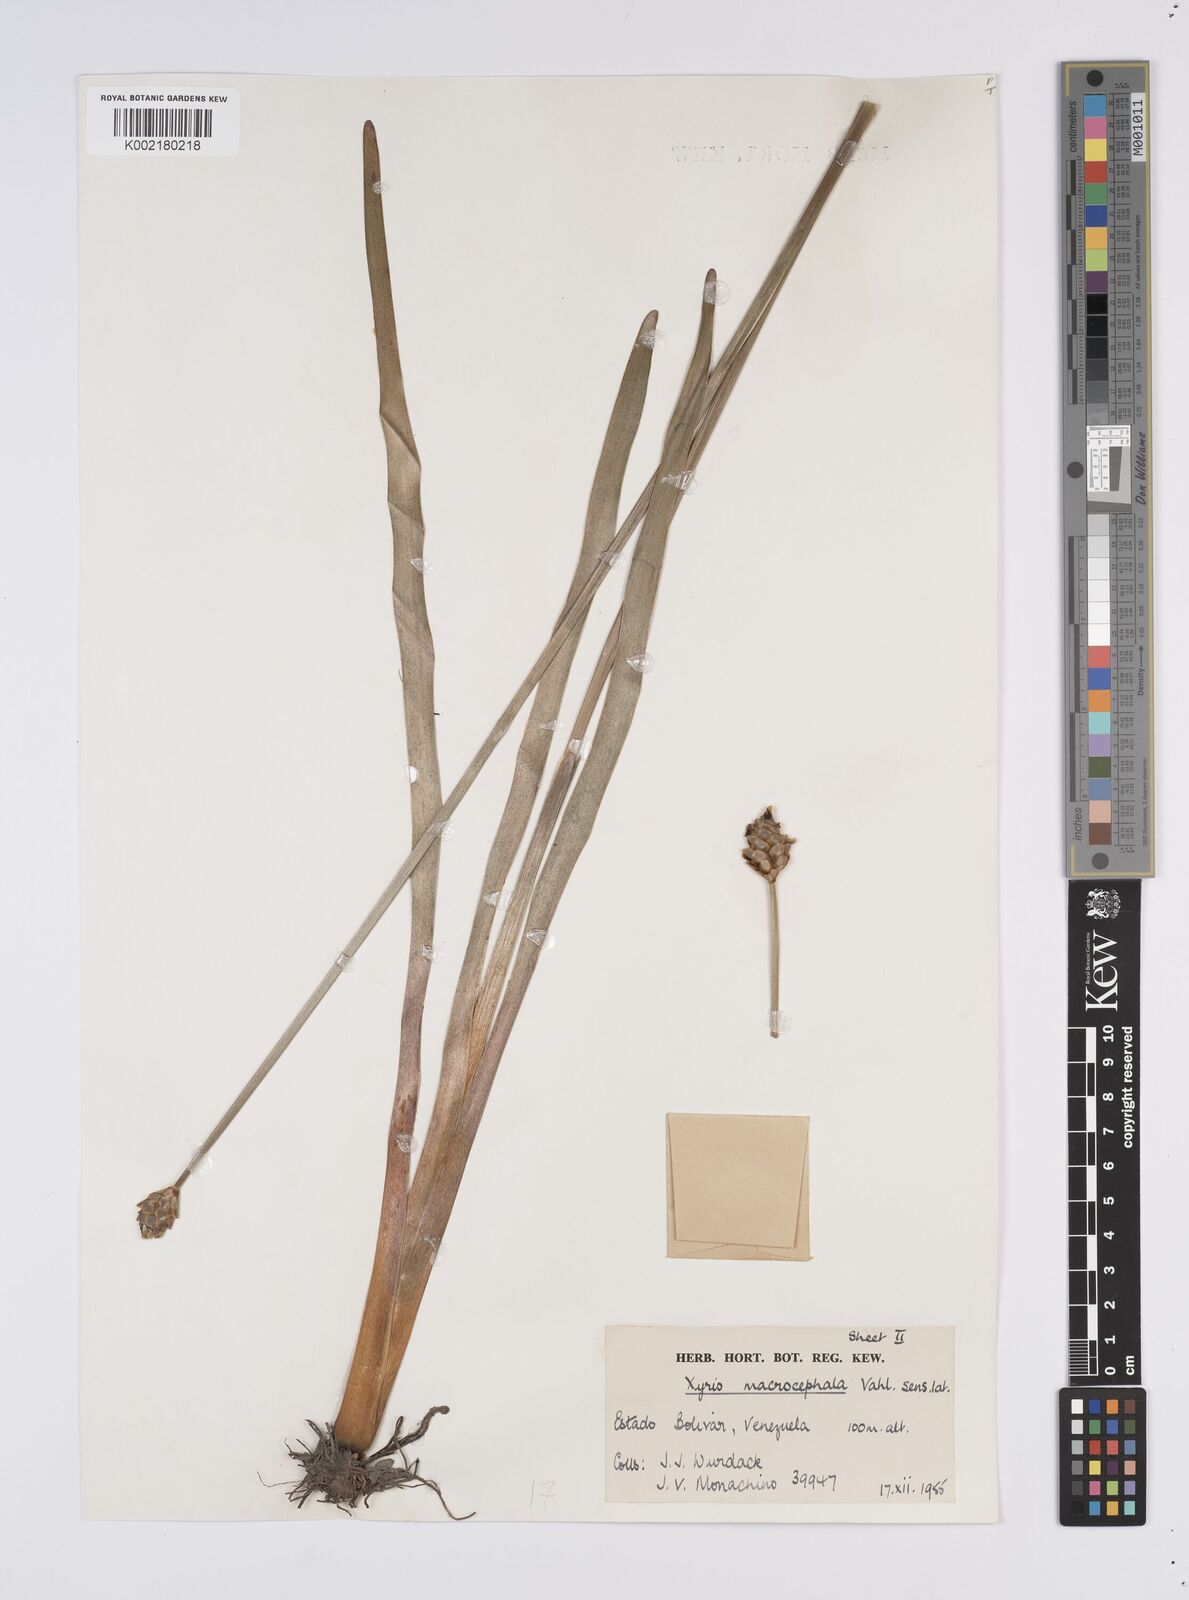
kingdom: Plantae
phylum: Tracheophyta
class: Liliopsida
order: Poales
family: Xyridaceae
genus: Xyris
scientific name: Xyris laxiflora
